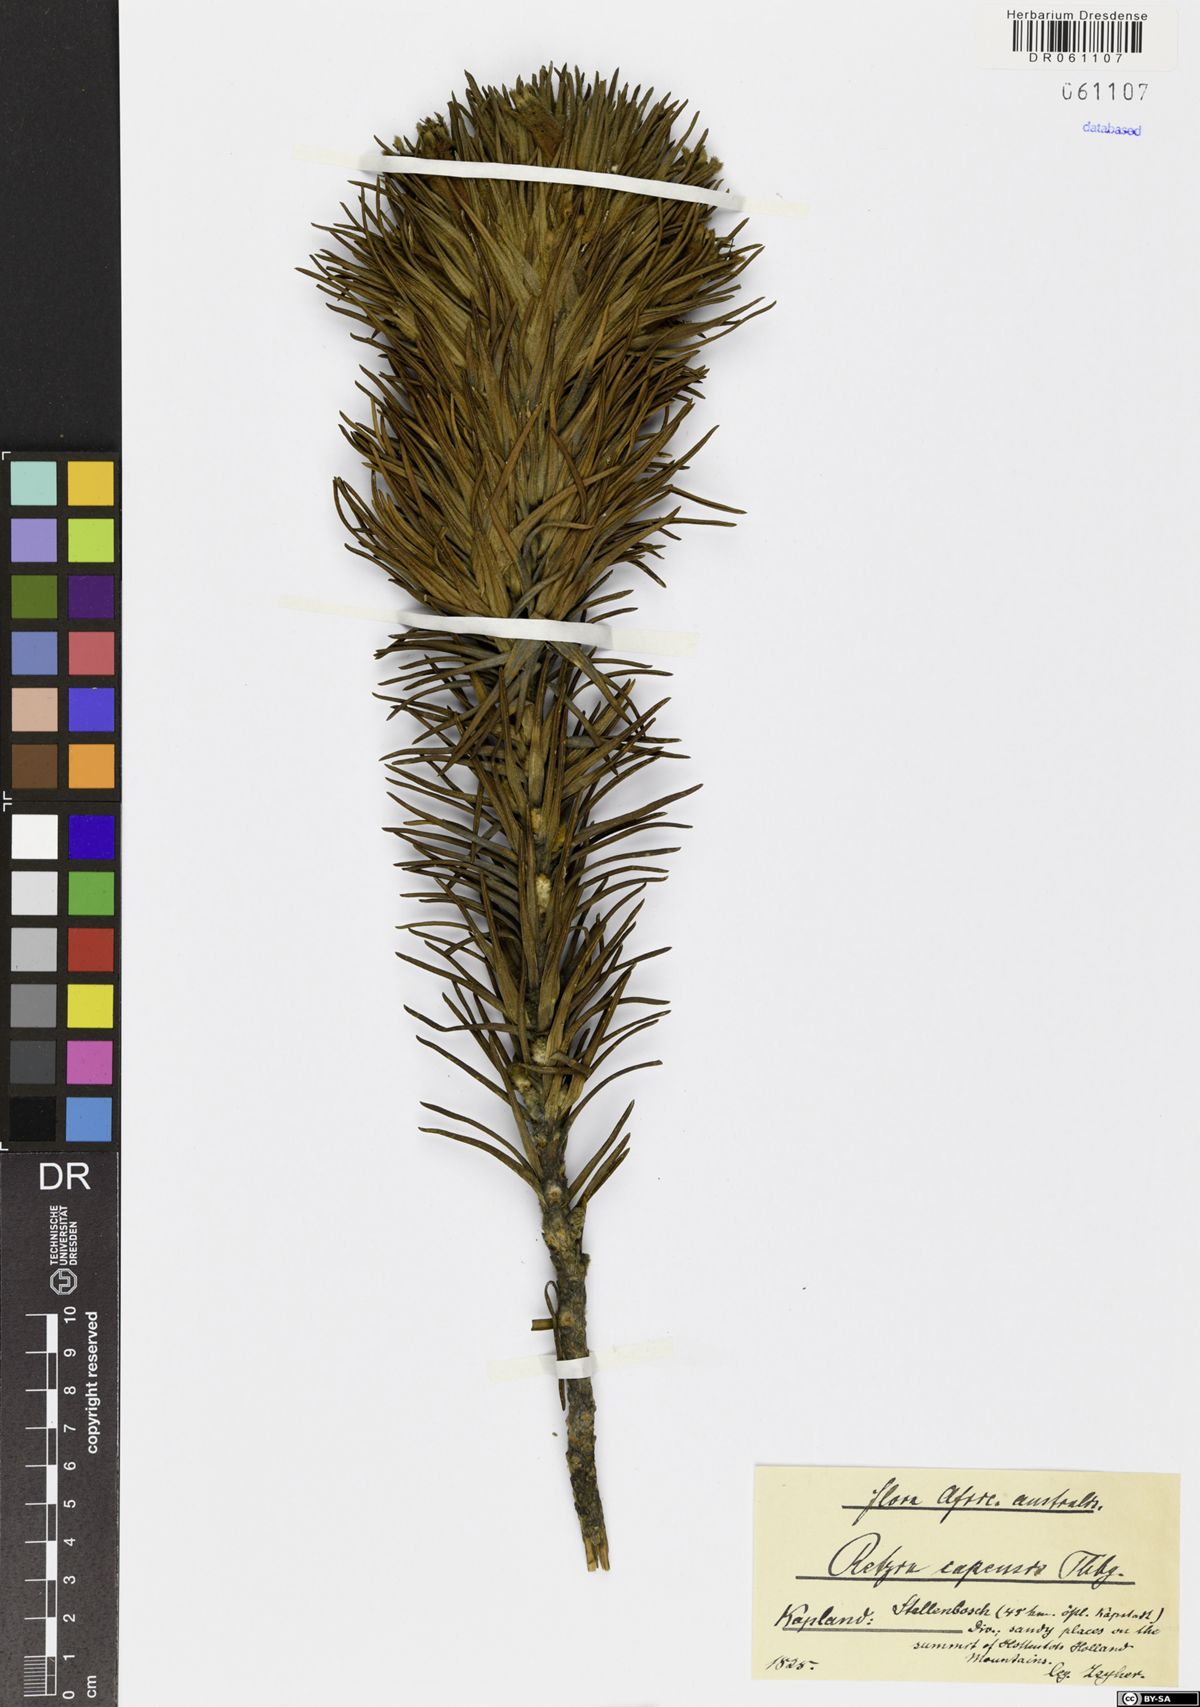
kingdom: Plantae
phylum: Tracheophyta
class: Magnoliopsida
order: Lamiales
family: Stilbaceae
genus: Retzia
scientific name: Retzia capensis
